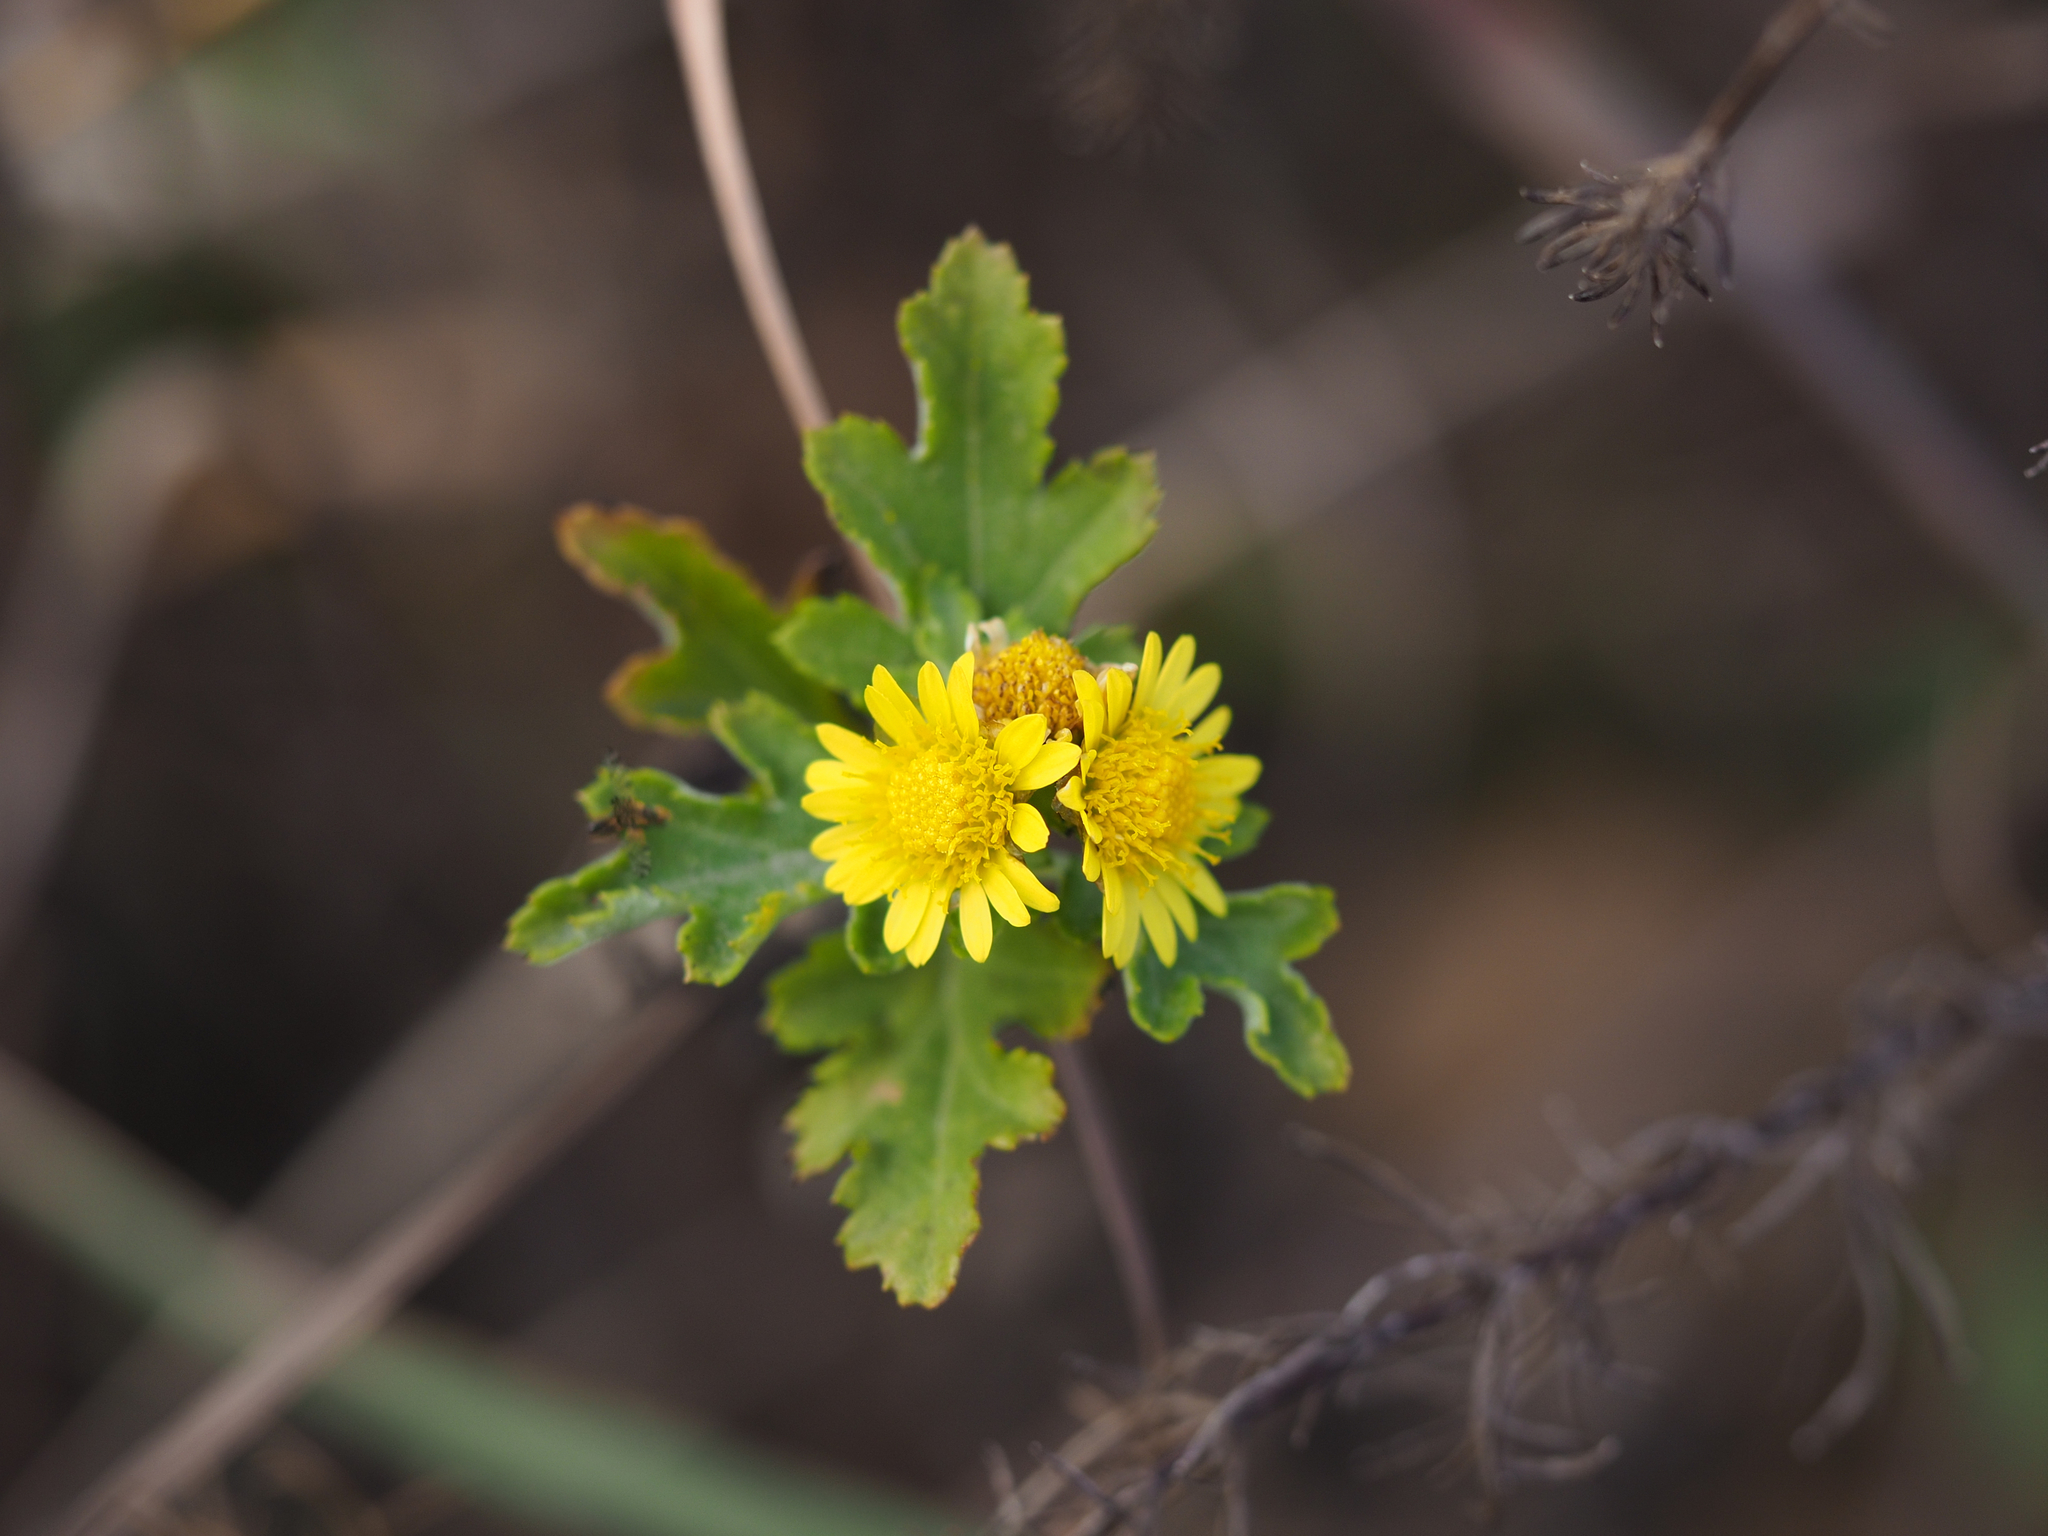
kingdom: Plantae
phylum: Tracheophyta
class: Magnoliopsida
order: Asterales
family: Asteraceae
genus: Chrysanthemum
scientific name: Chrysanthemum lavandulifolium
